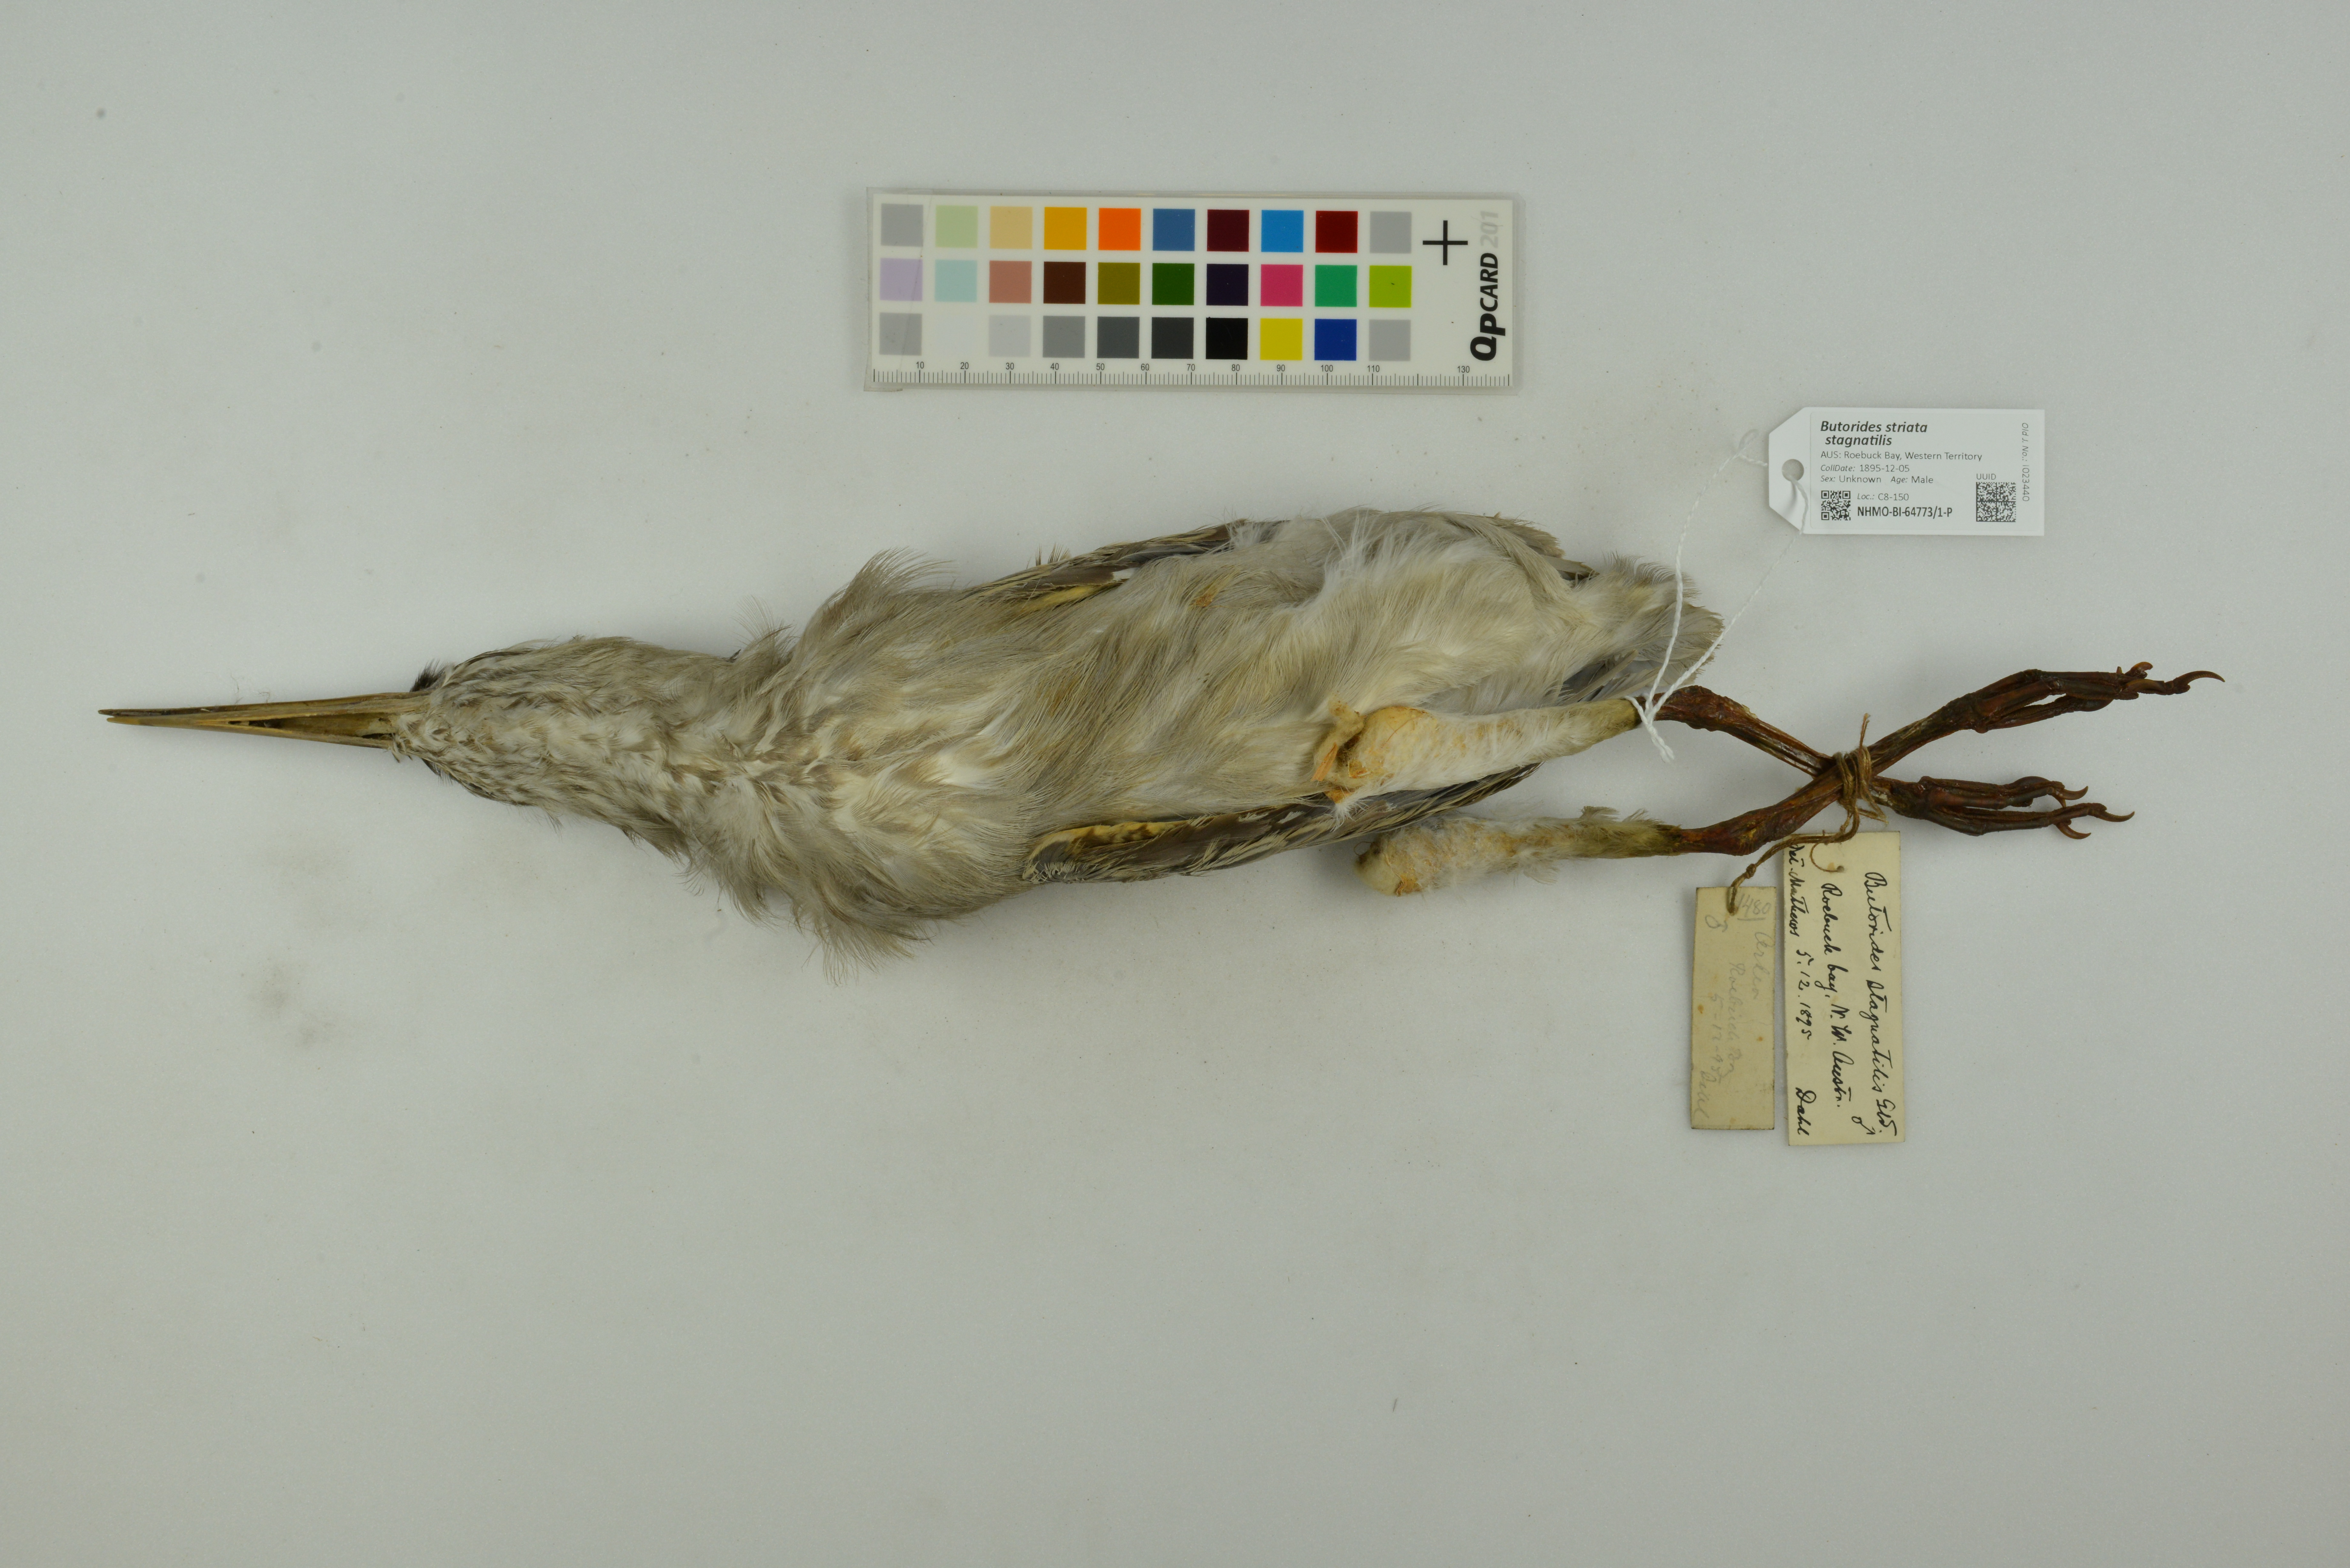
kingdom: Animalia
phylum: Chordata
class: Aves
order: Pelecaniformes
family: Ardeidae
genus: Butorides
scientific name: Butorides striata
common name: Striated heron
